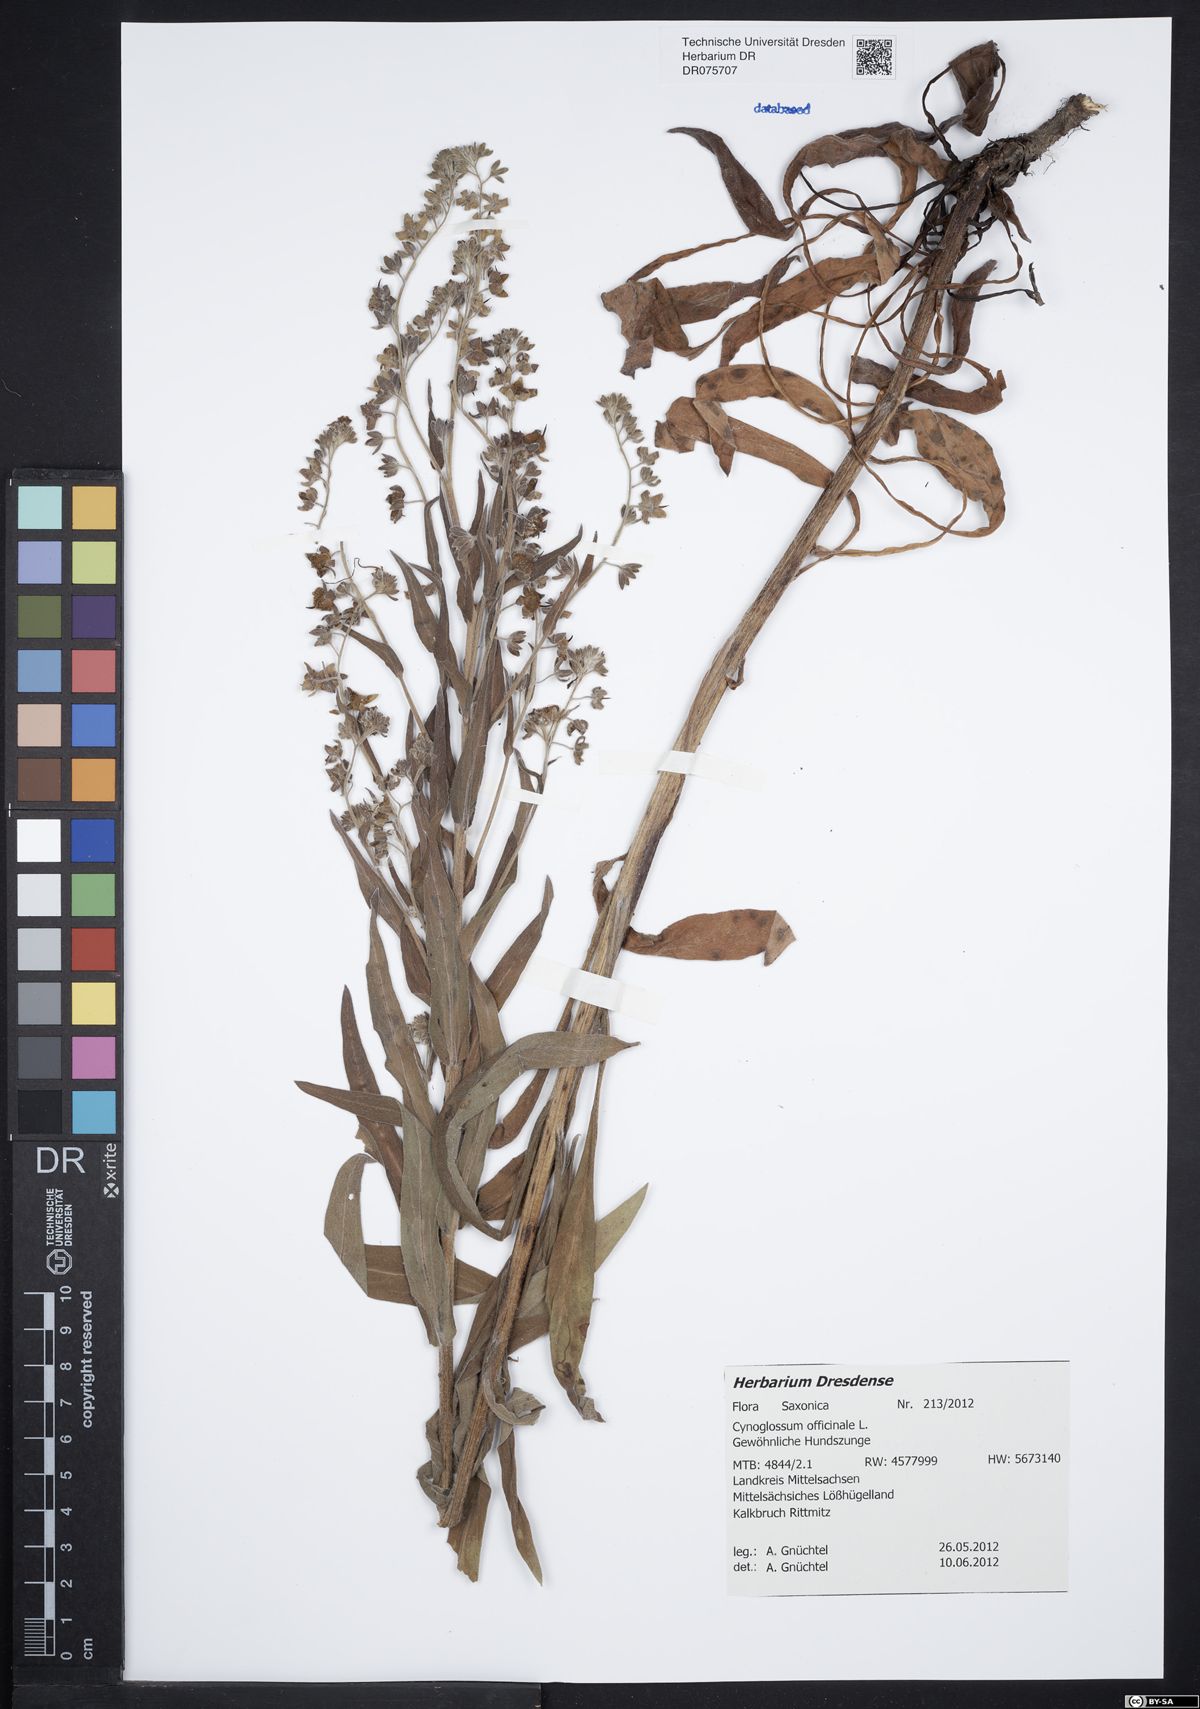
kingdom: Plantae
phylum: Tracheophyta
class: Magnoliopsida
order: Boraginales
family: Boraginaceae
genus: Cynoglossum
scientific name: Cynoglossum officinale
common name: Hound's-tongue
